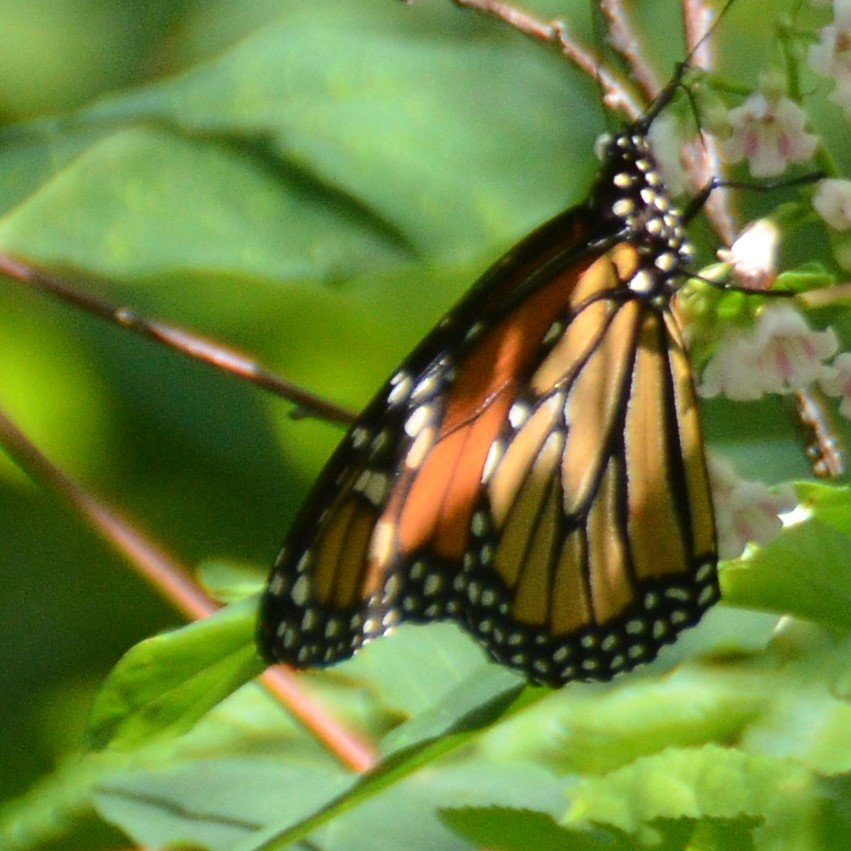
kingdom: Animalia
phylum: Arthropoda
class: Insecta
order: Lepidoptera
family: Nymphalidae
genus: Danaus
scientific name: Danaus plexippus
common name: Monarch
